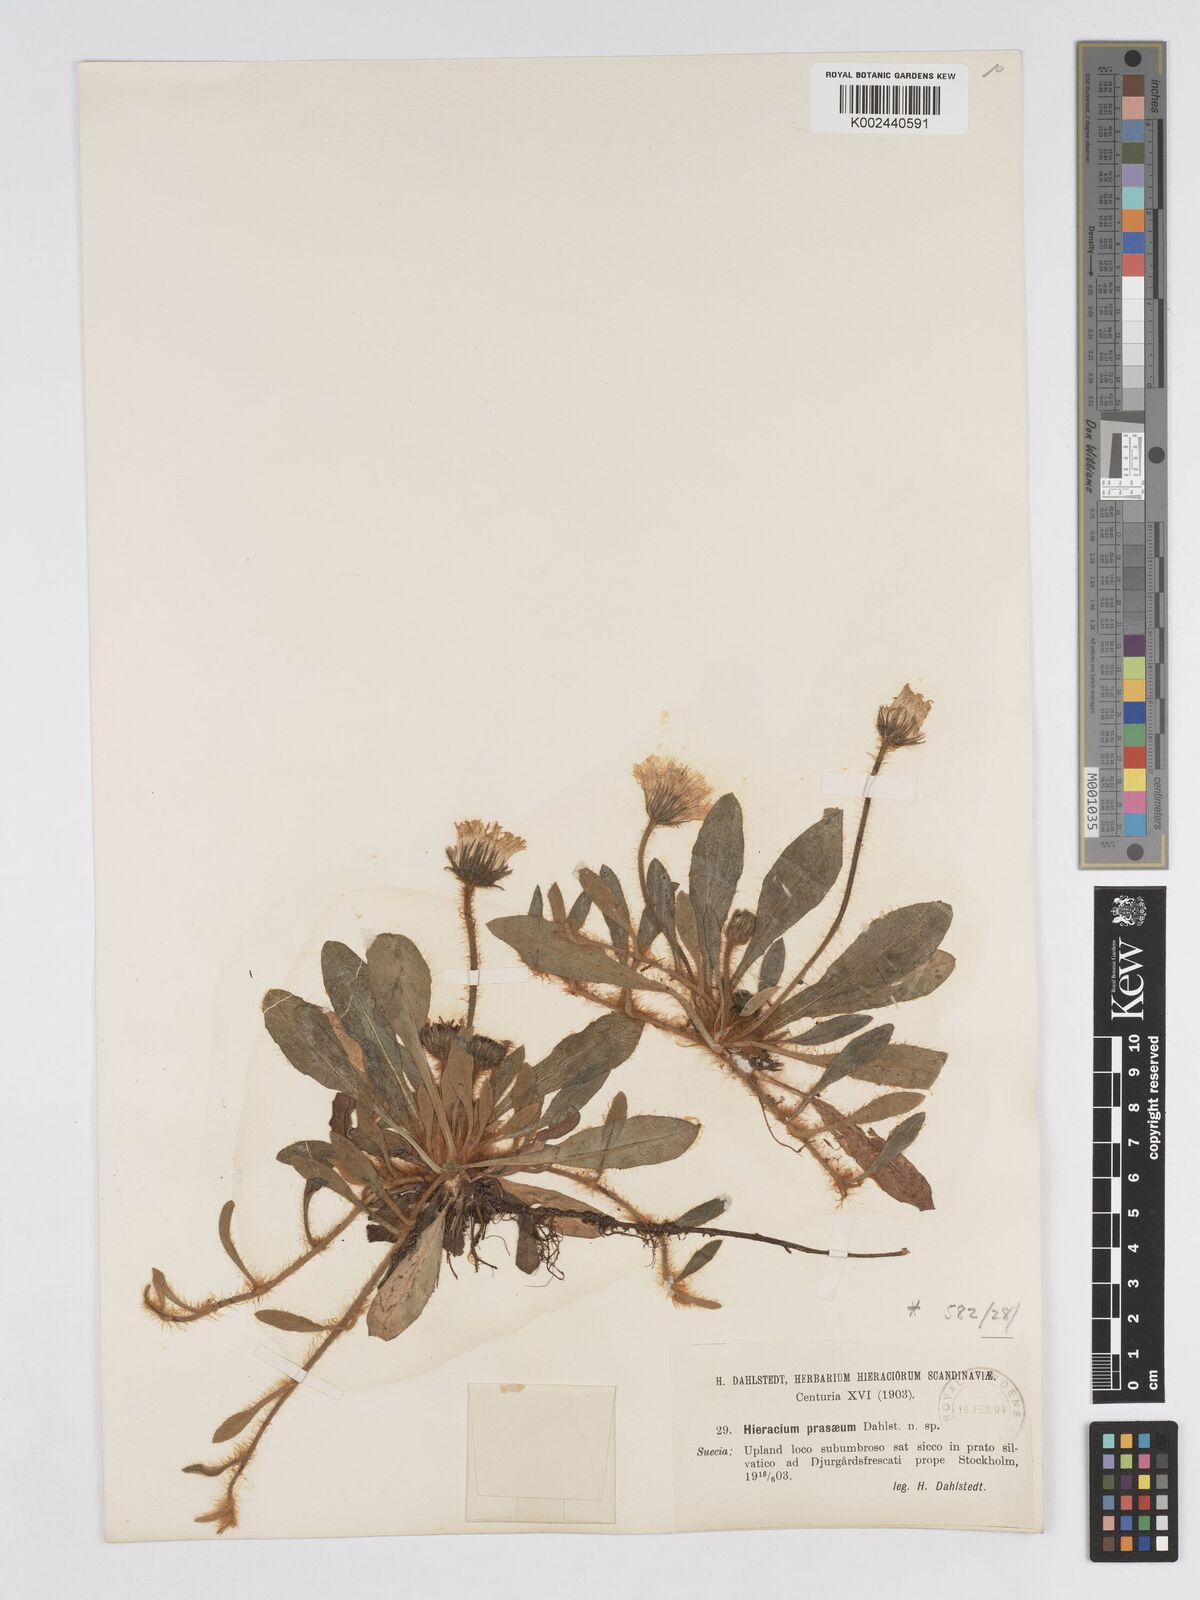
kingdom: Plantae
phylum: Tracheophyta
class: Magnoliopsida
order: Asterales
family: Asteraceae
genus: Pilosella
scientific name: Pilosella longisquama
